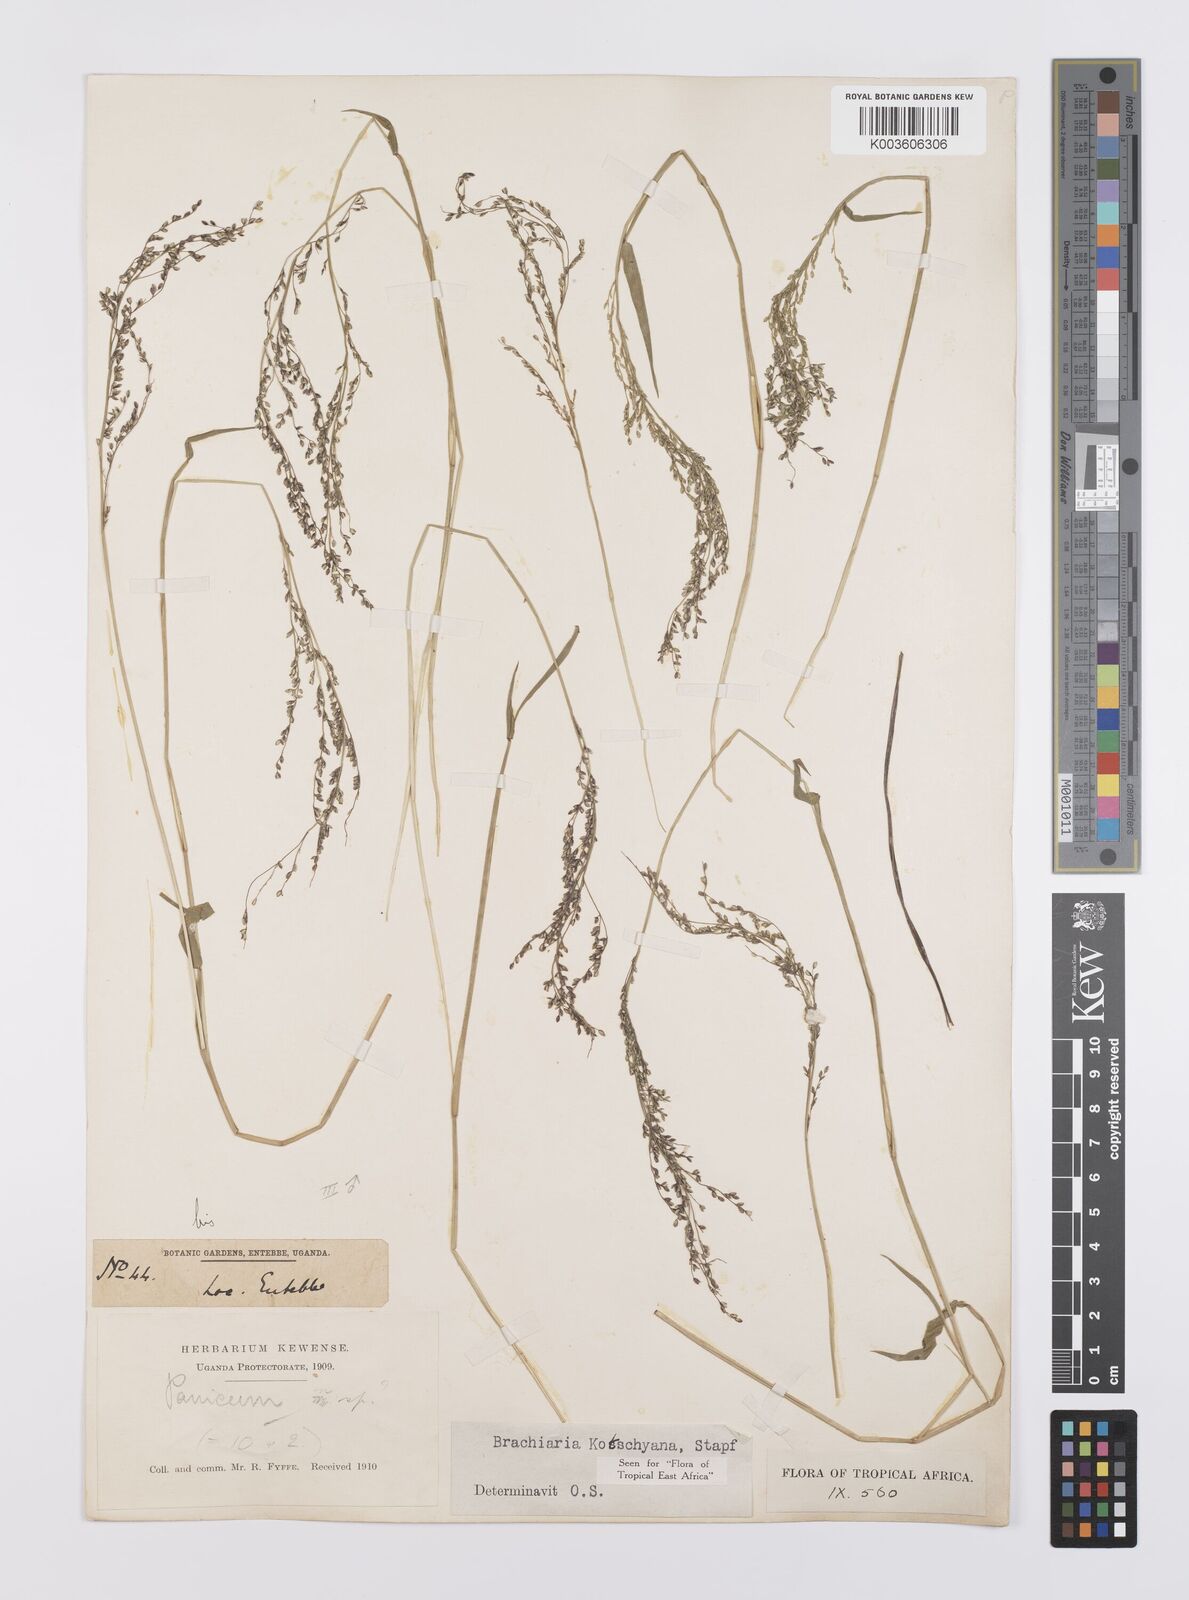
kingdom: Plantae
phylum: Tracheophyta
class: Liliopsida
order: Poales
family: Poaceae
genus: Urochloa
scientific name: Urochloa comata
